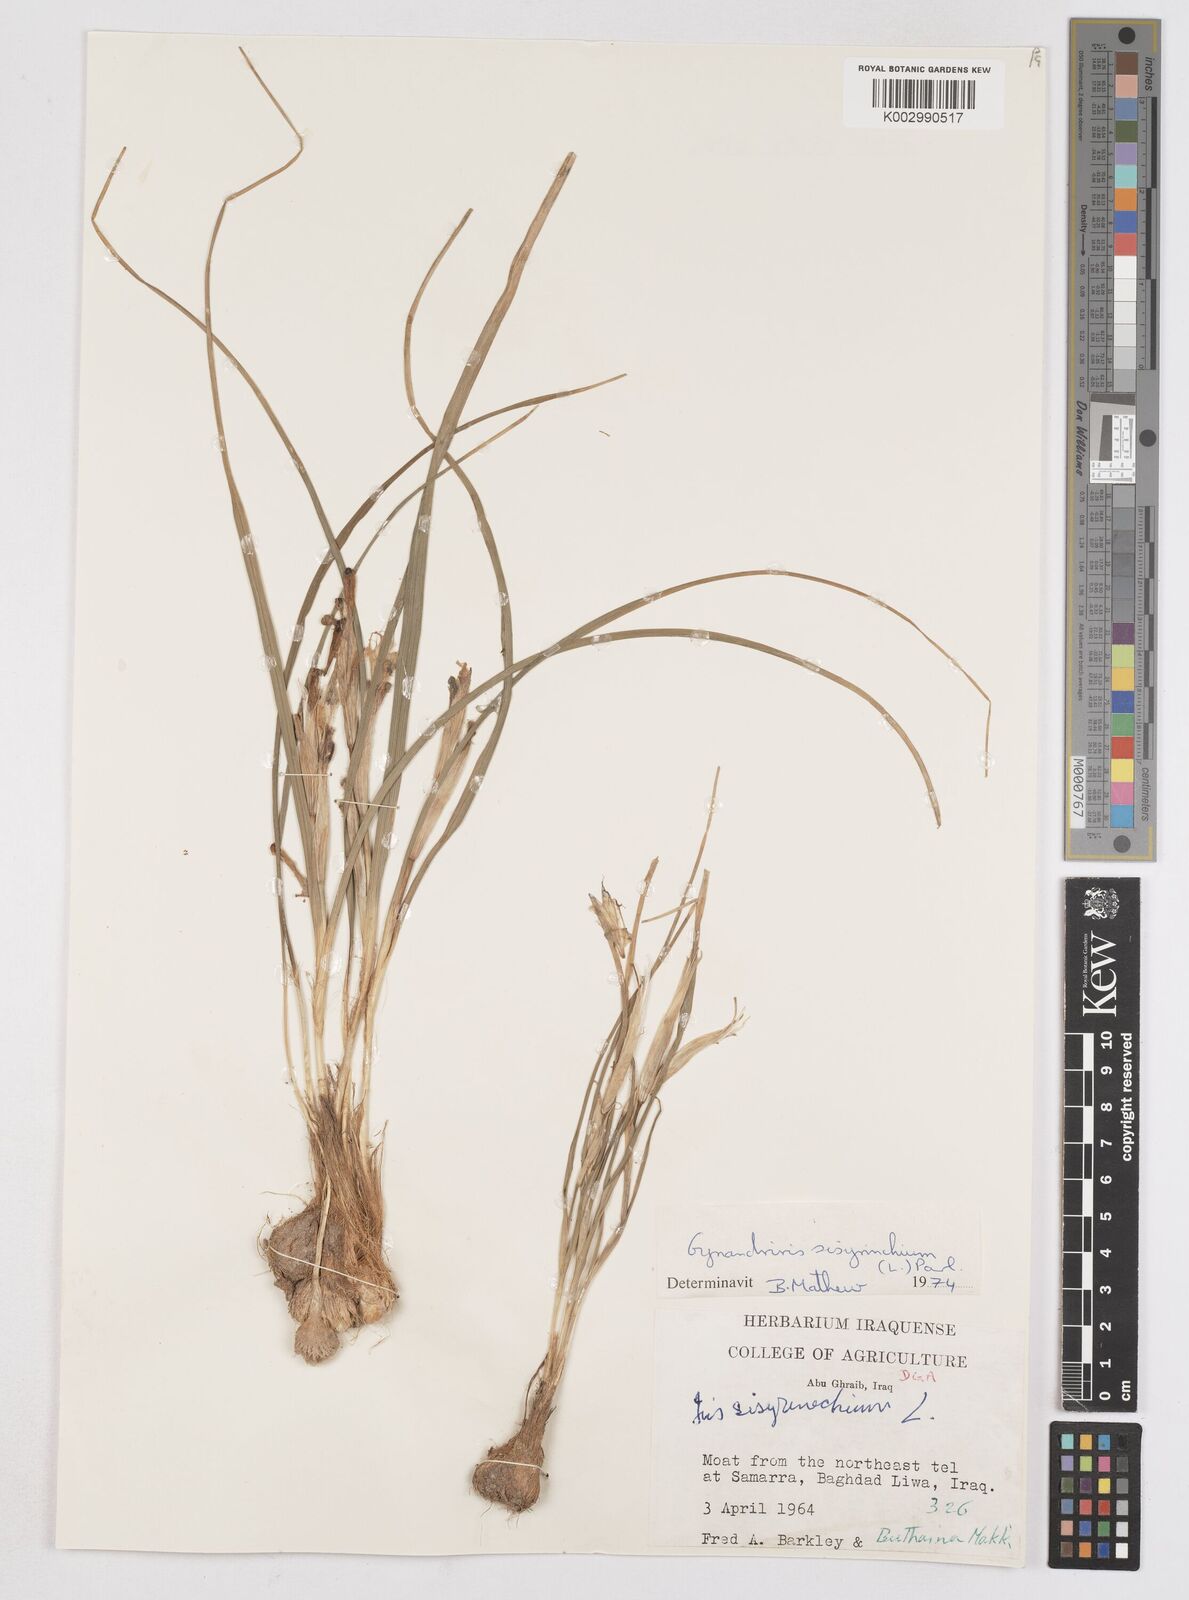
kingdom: Plantae
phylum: Tracheophyta
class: Liliopsida
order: Asparagales
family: Iridaceae
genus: Moraea
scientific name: Moraea sisyrinchium
